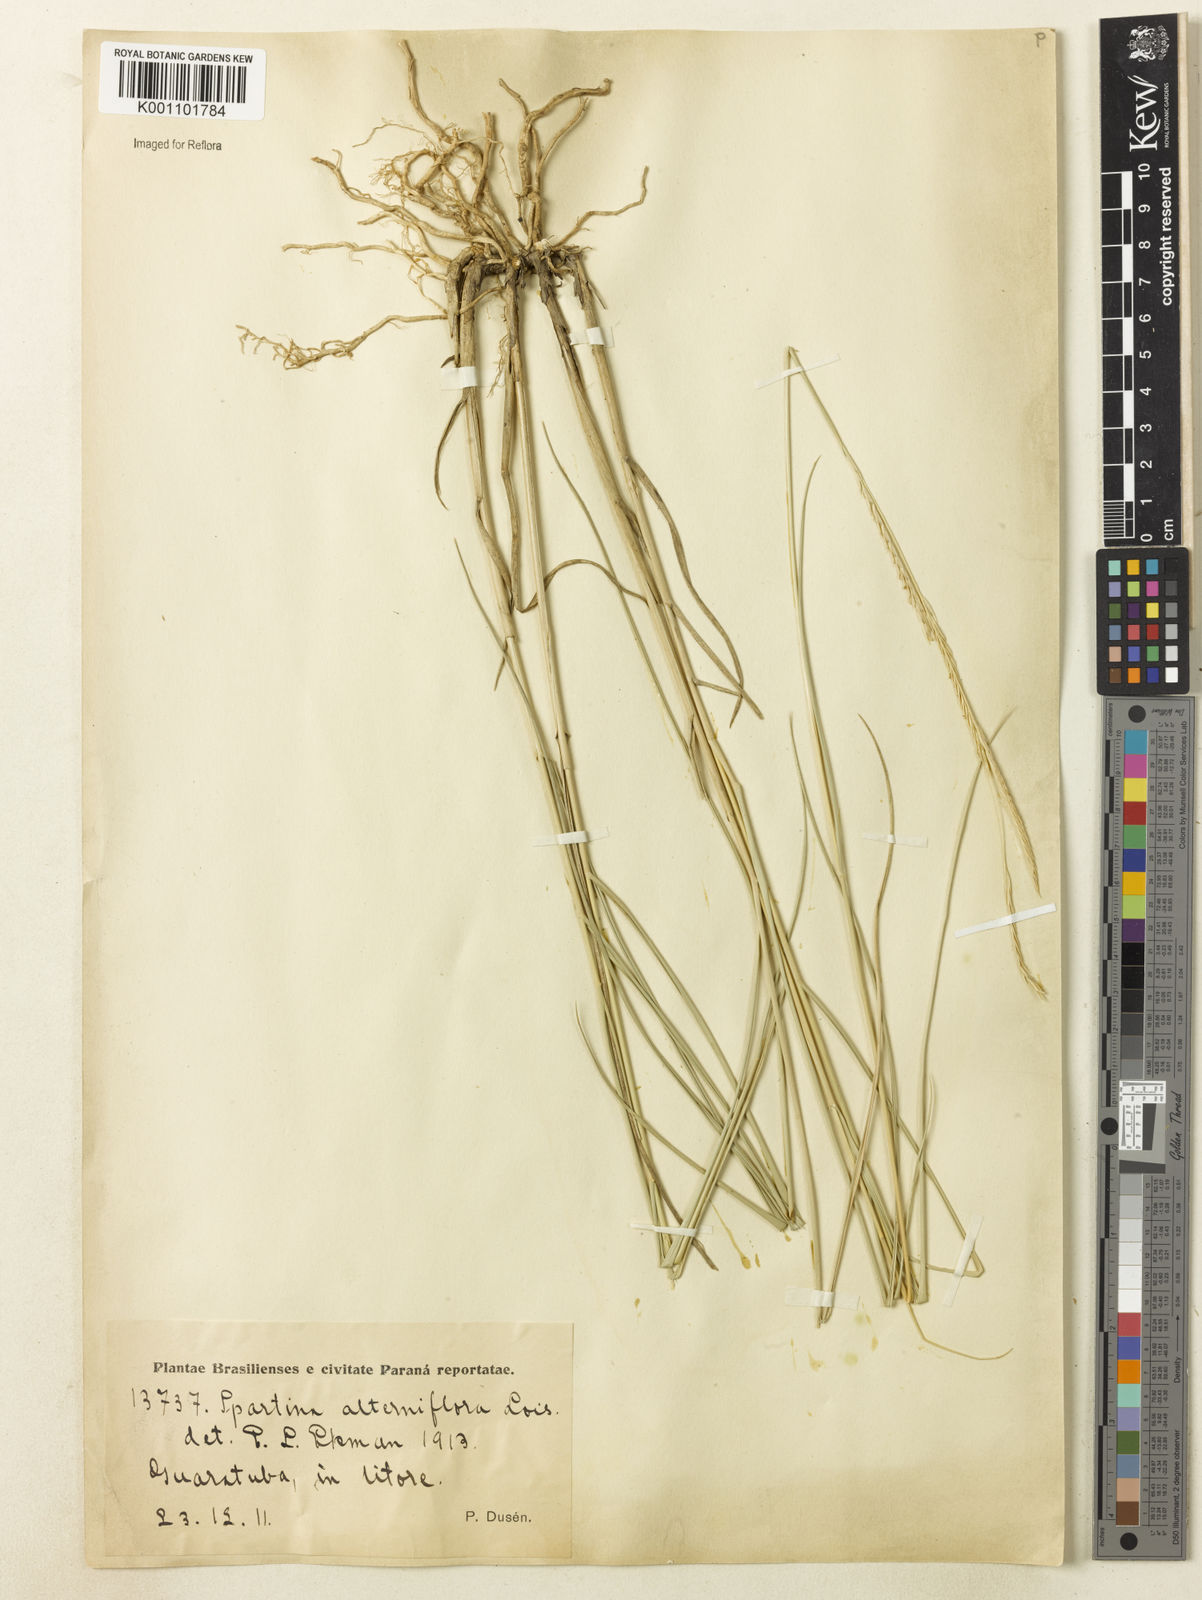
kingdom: Plantae
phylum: Tracheophyta
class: Liliopsida
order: Poales
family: Poaceae
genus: Sporobolus
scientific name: Sporobolus montevidensis
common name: Montevideo dropseed
